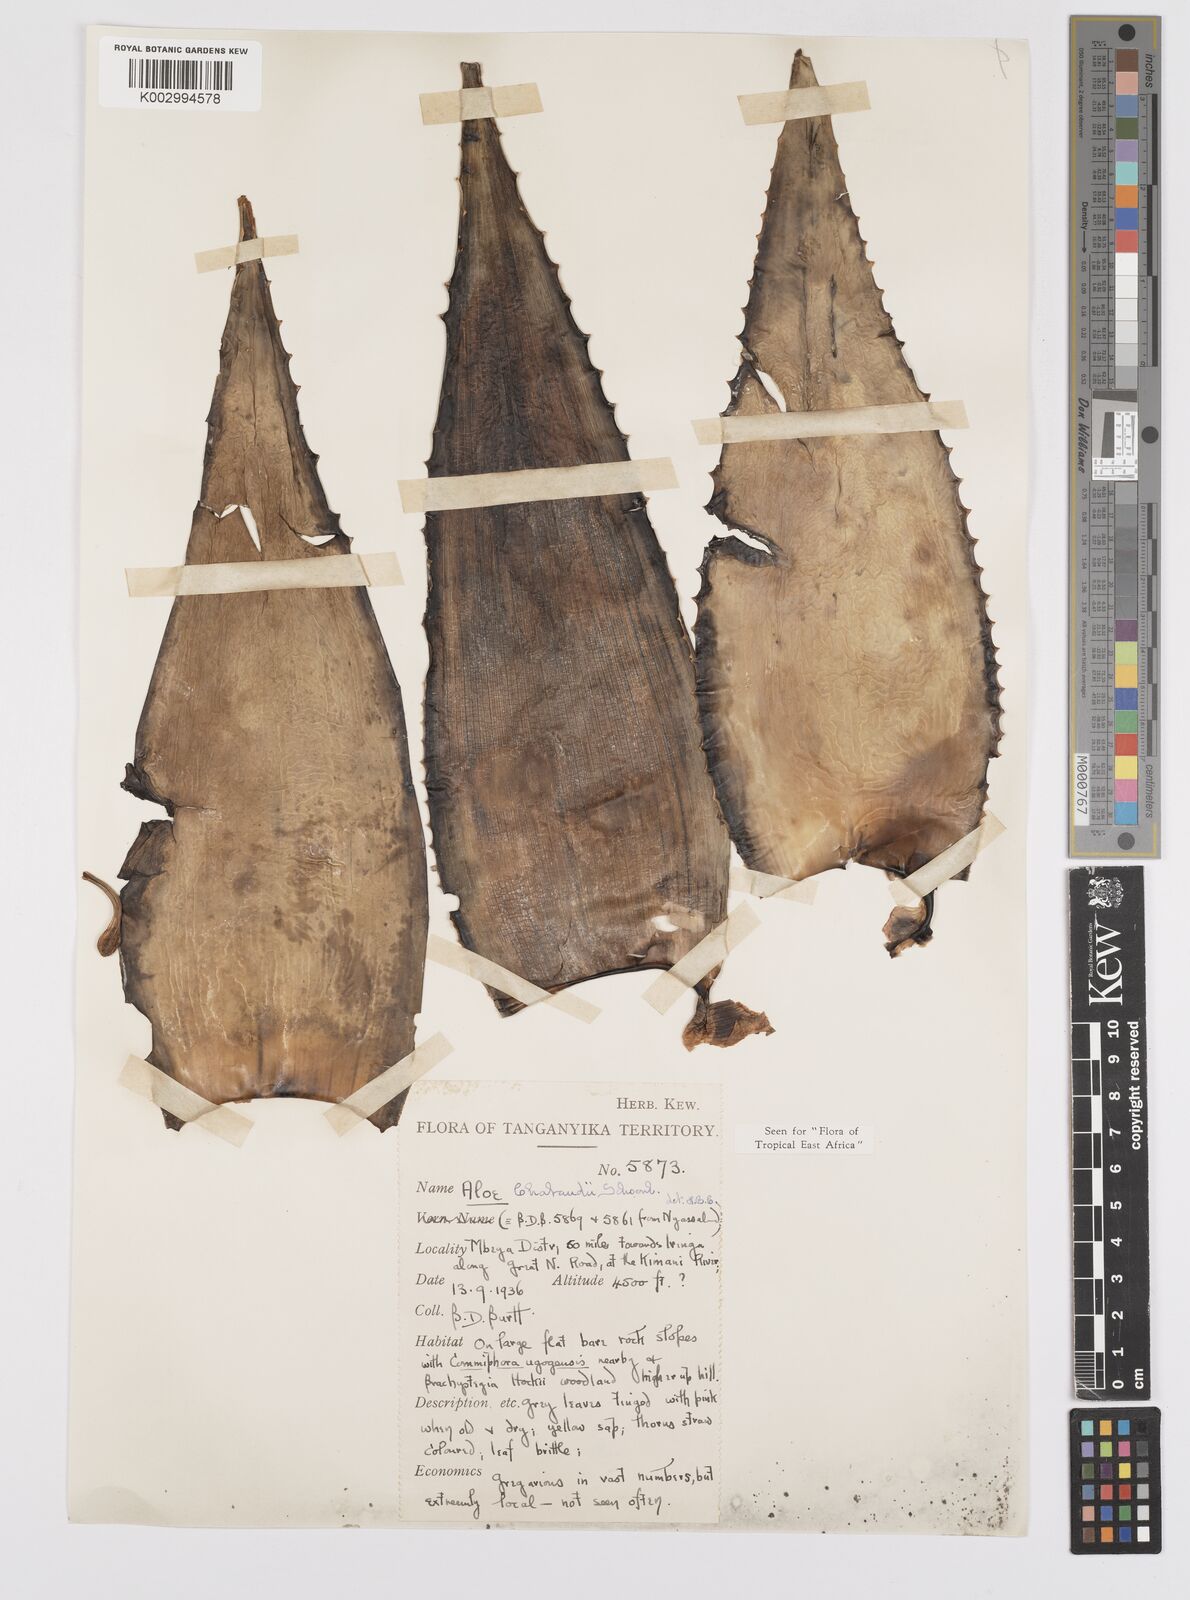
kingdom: Plantae
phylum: Tracheophyta
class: Liliopsida
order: Asparagales
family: Asphodelaceae
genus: Aloe
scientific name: Aloe chabaudii
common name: Chabaud's aloe
